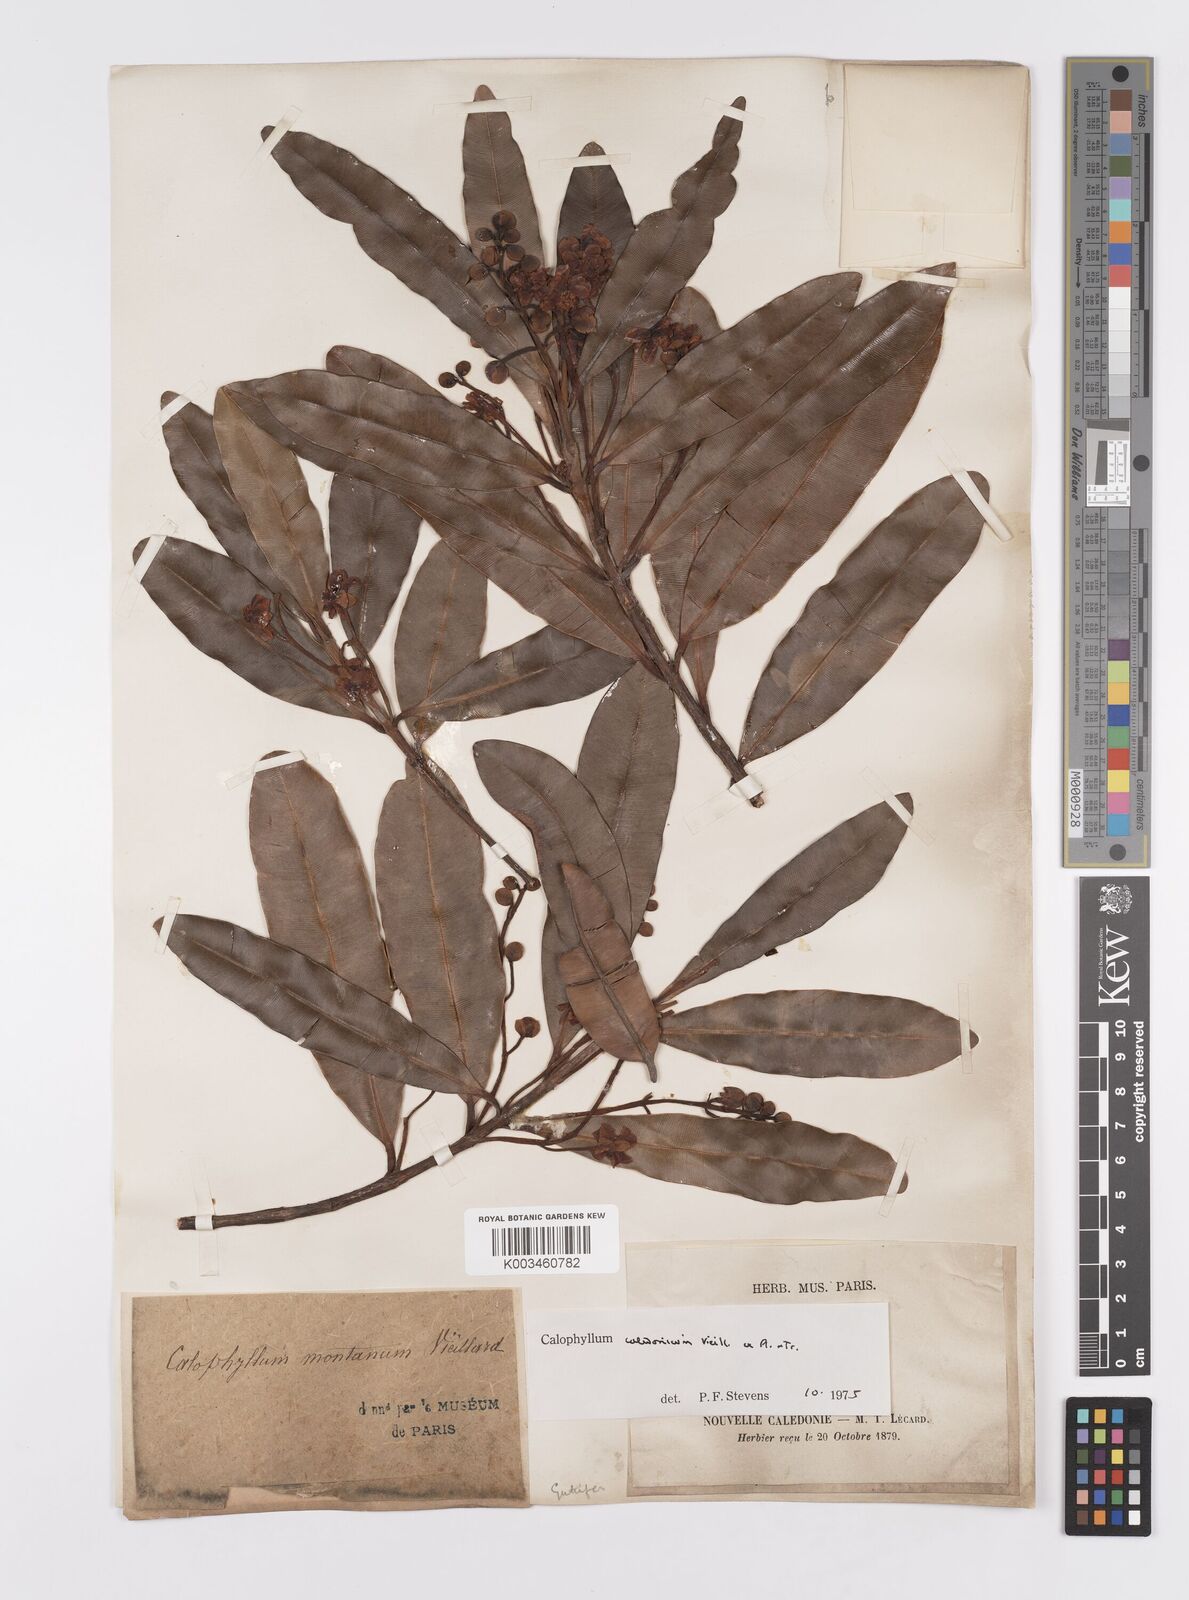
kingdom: Plantae
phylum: Tracheophyta
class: Magnoliopsida
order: Malpighiales
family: Calophyllaceae
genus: Calophyllum
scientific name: Calophyllum caledonicum
